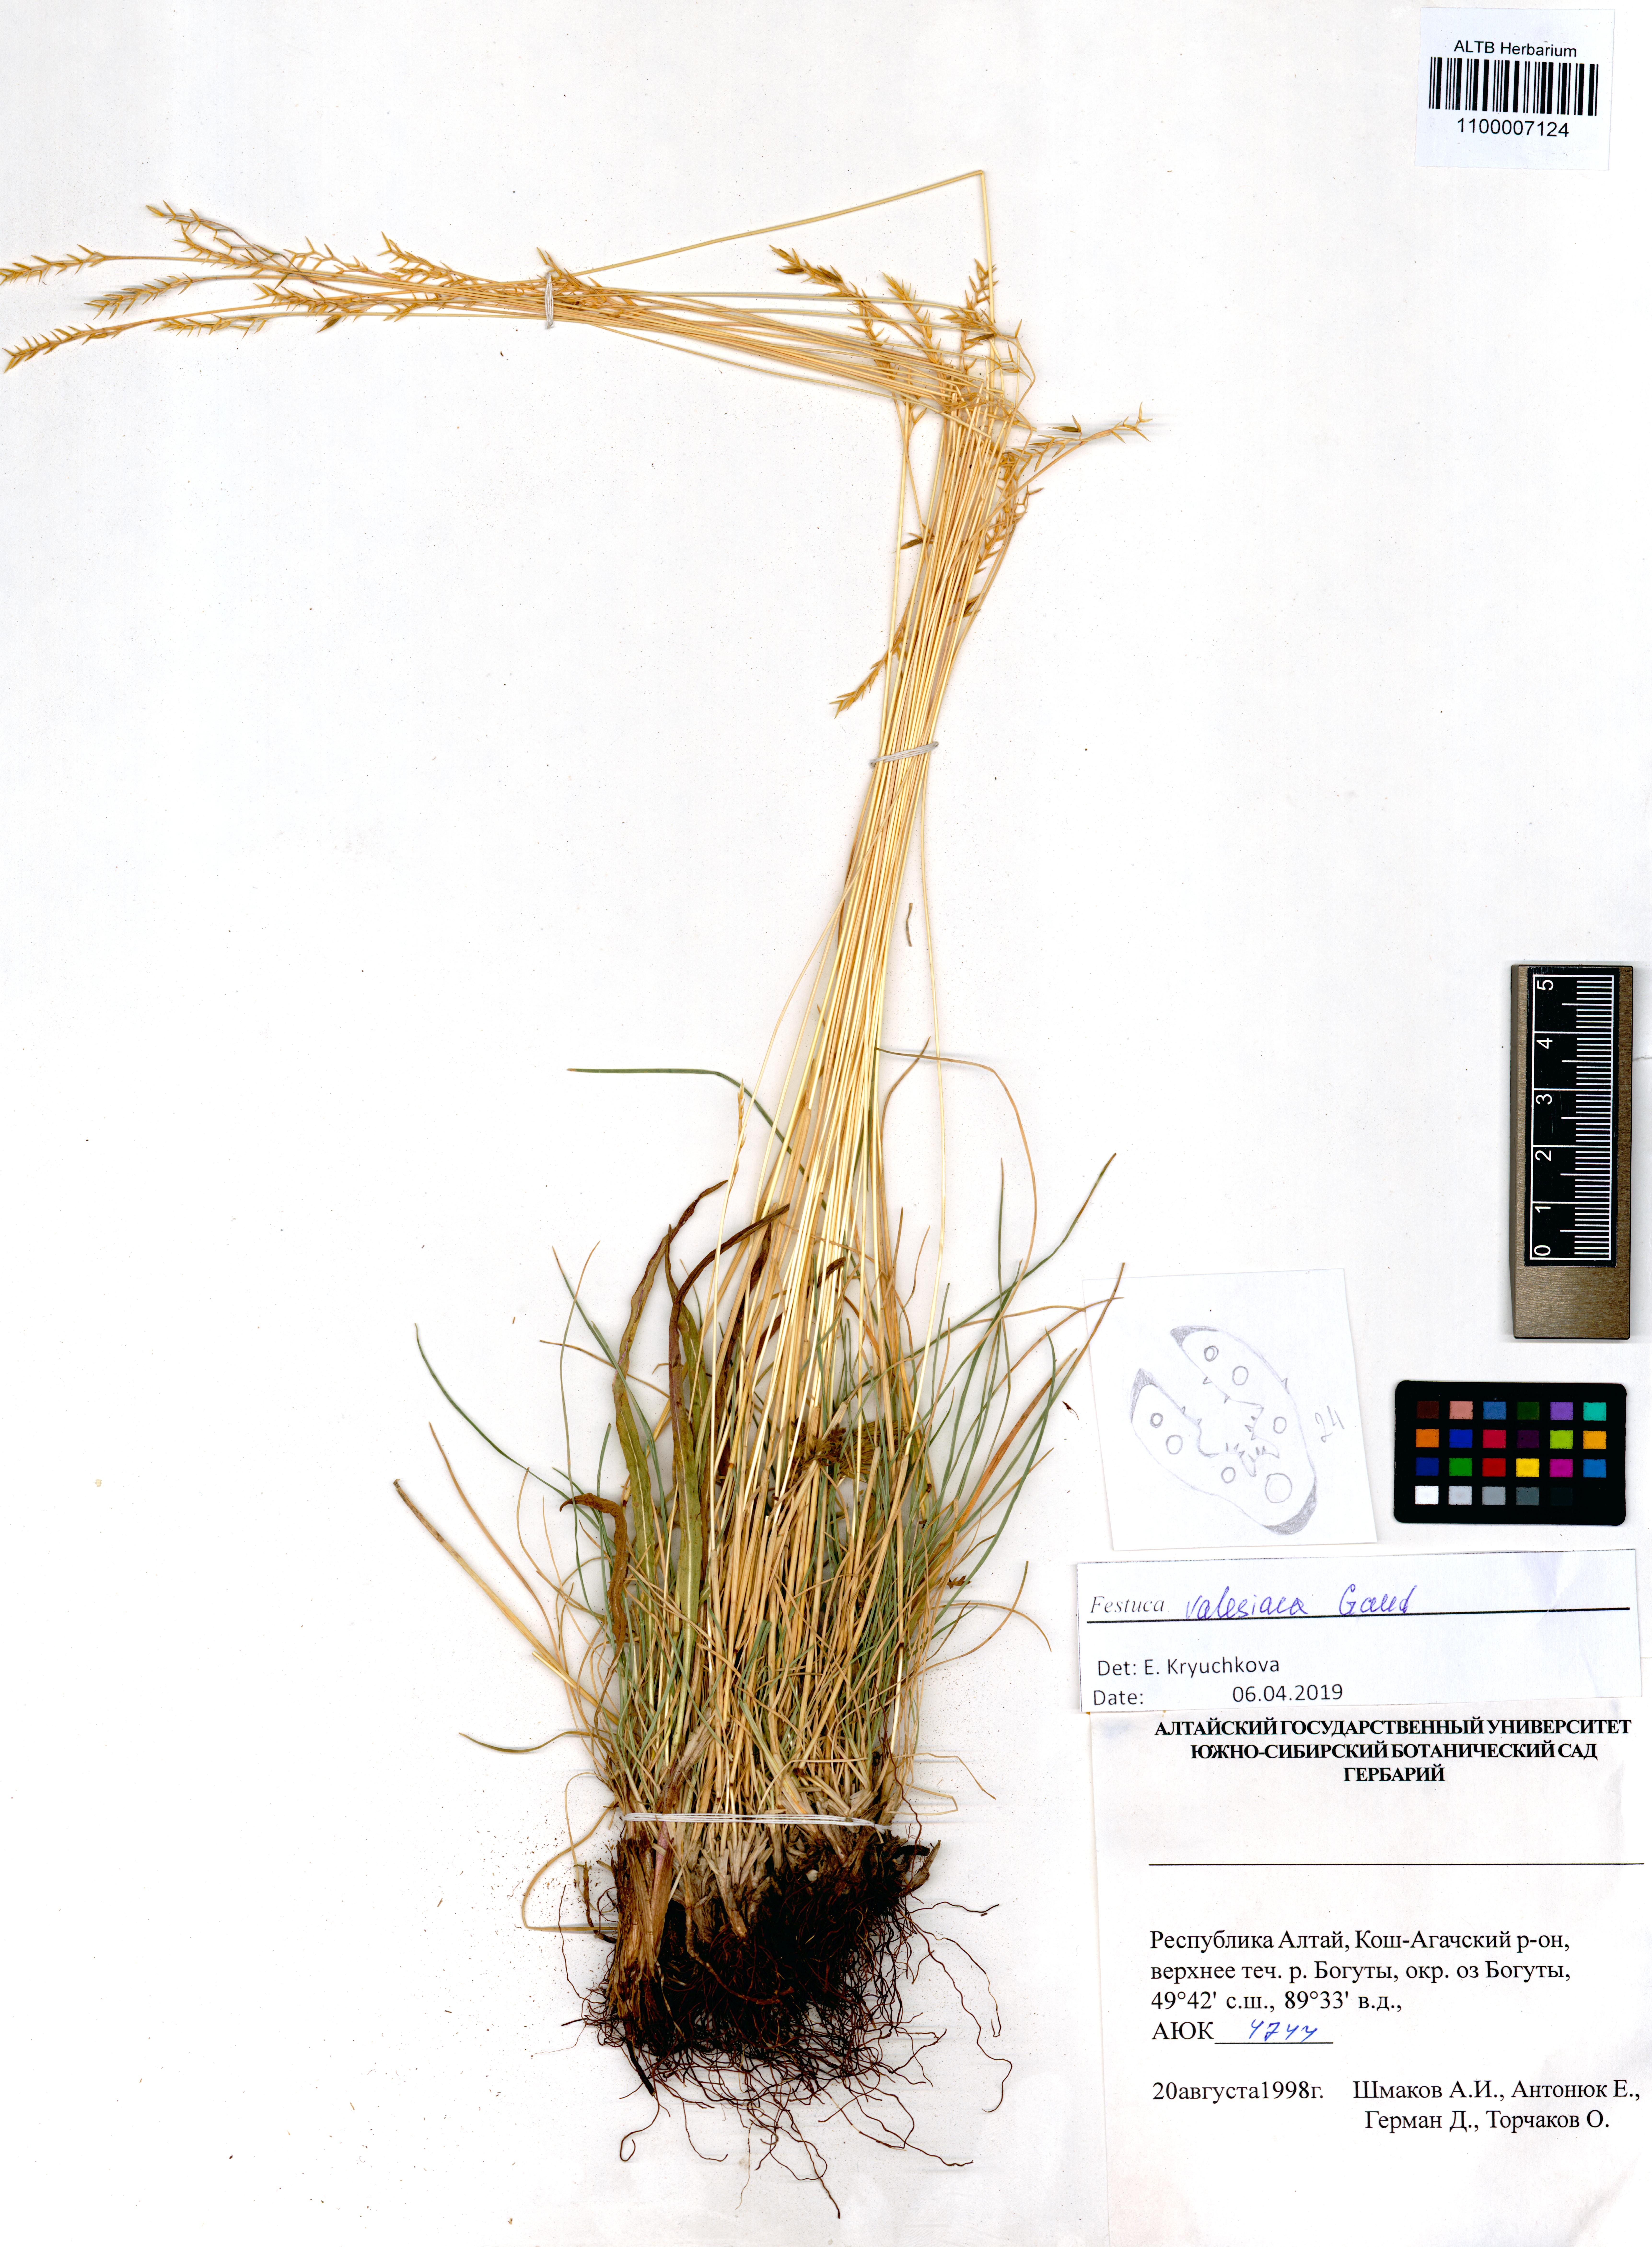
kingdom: Plantae
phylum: Tracheophyta
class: Liliopsida
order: Poales
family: Poaceae
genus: Festuca
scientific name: Festuca valesiaca
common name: Volga fescue
